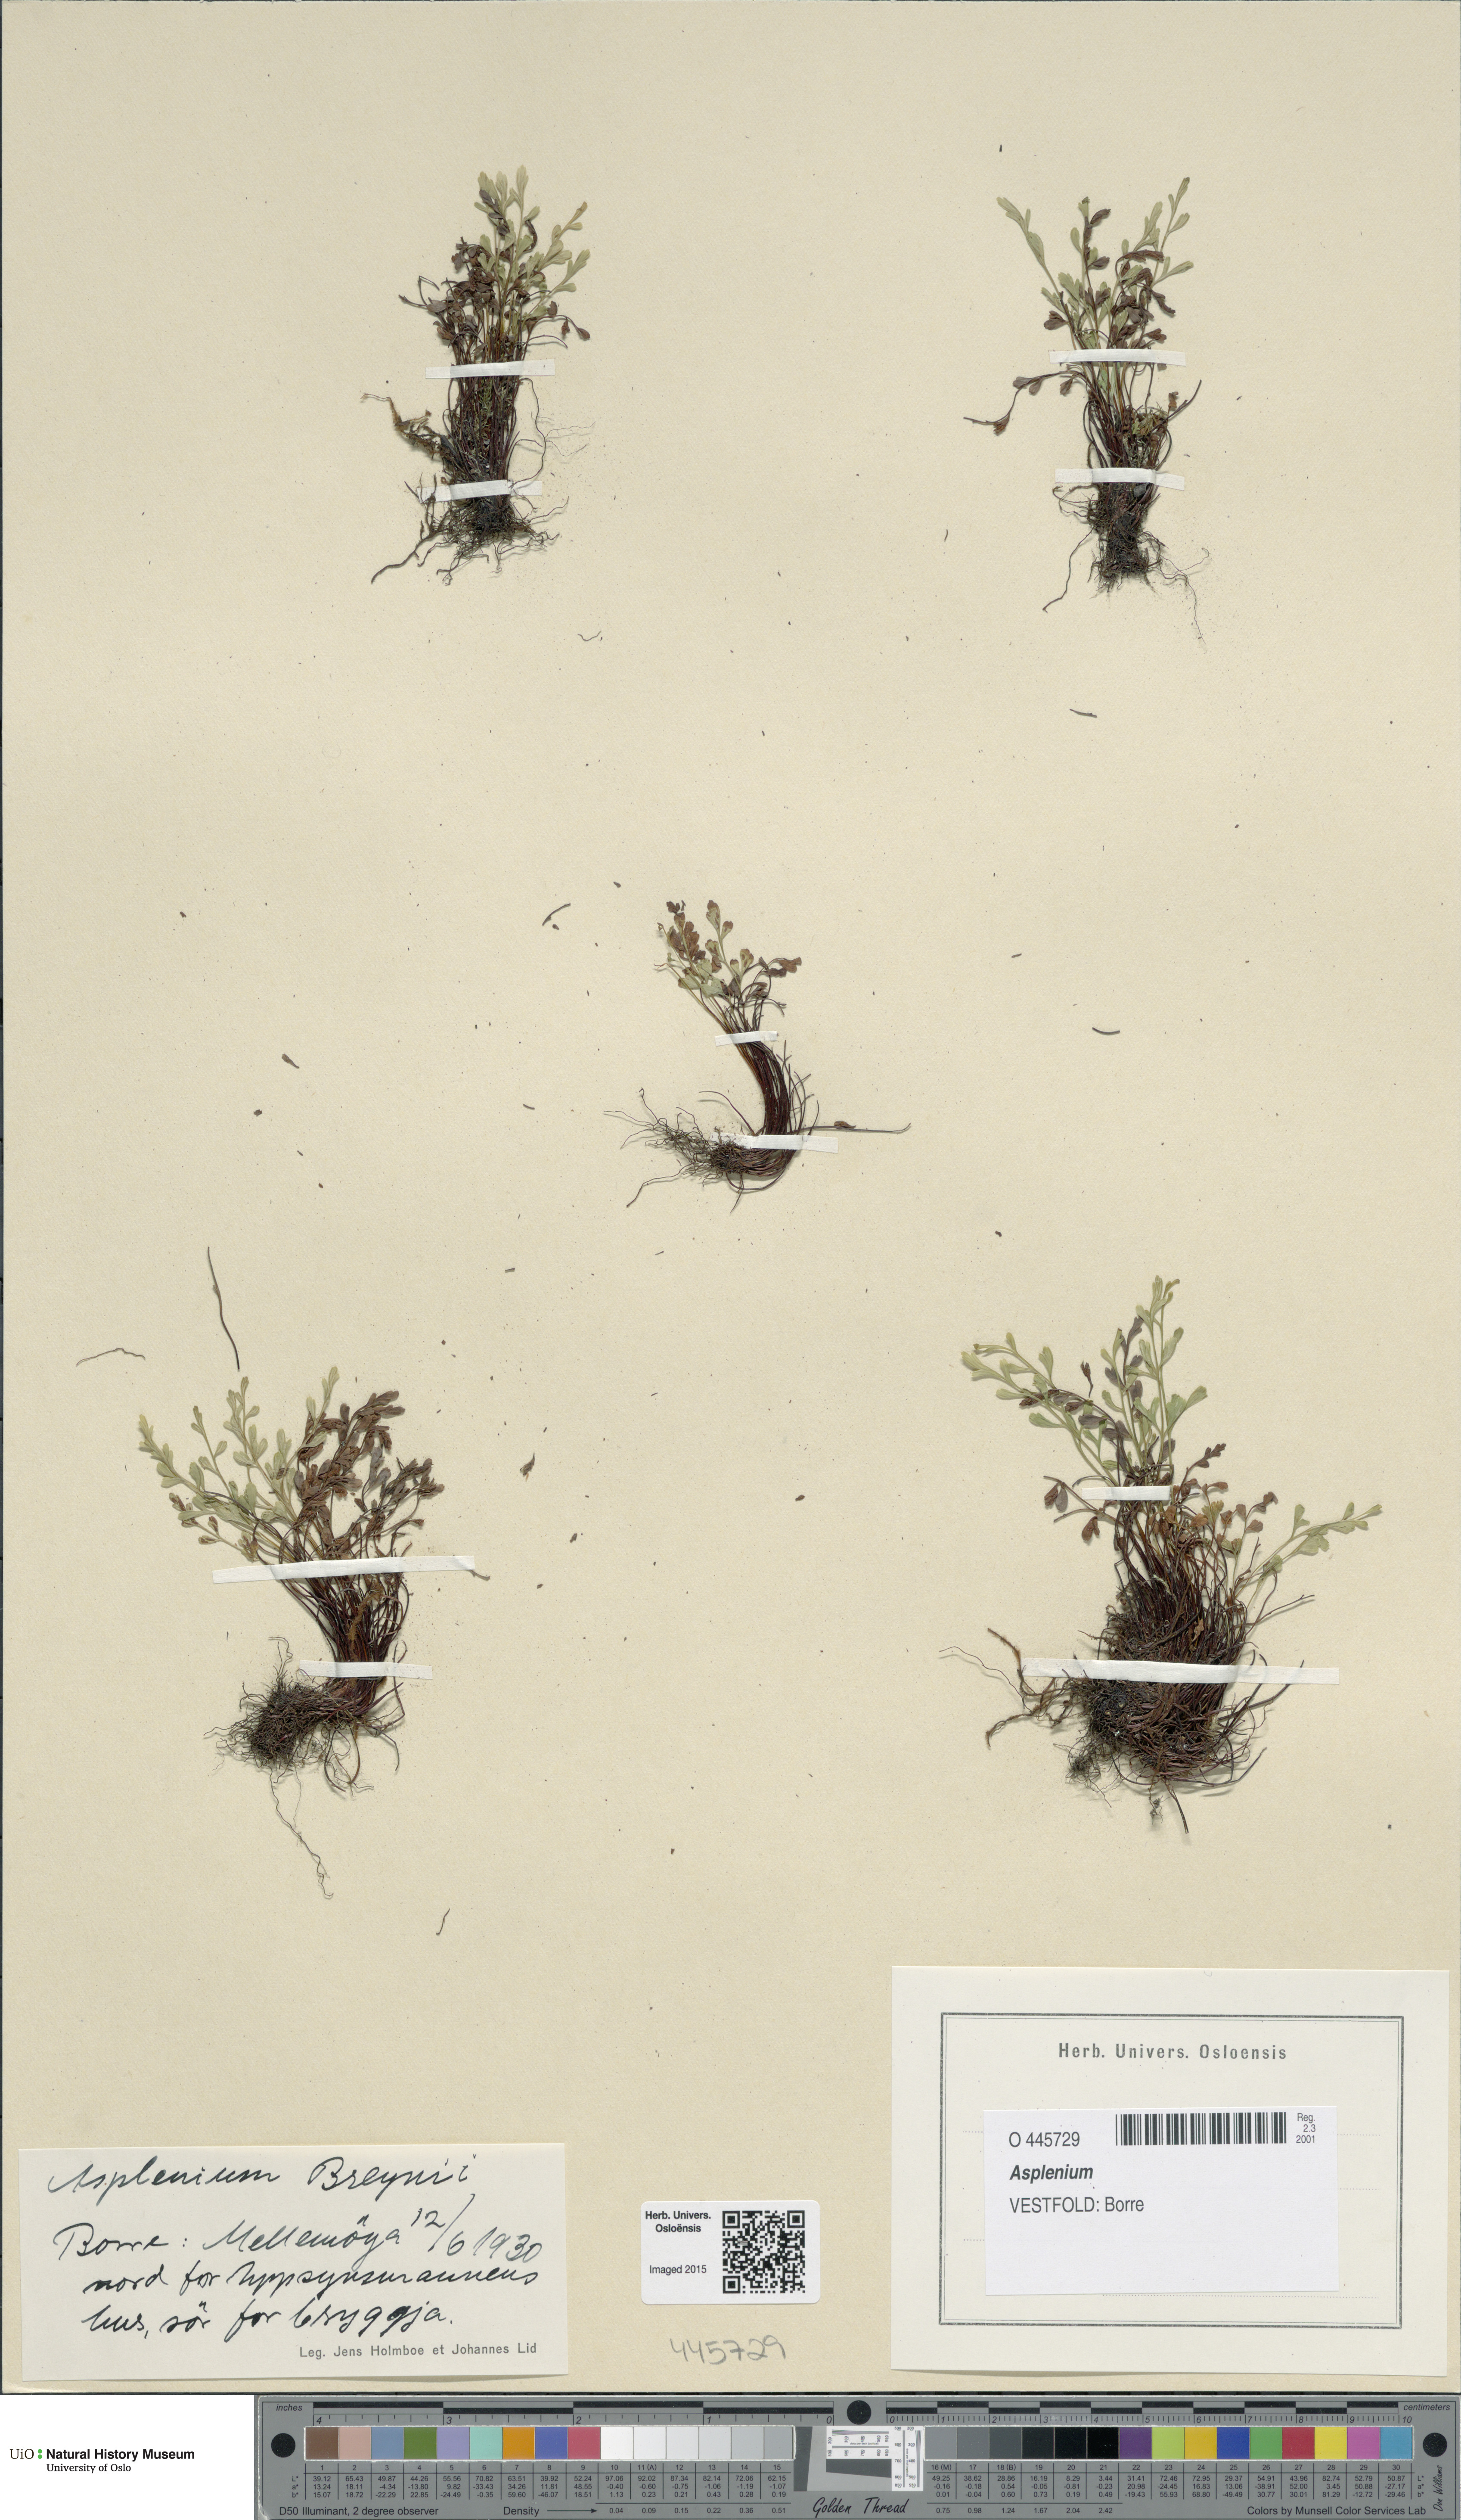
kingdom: Plantae
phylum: Tracheophyta
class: Polypodiopsida
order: Polypodiales
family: Aspleniaceae
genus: Asplenium
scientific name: Asplenium
